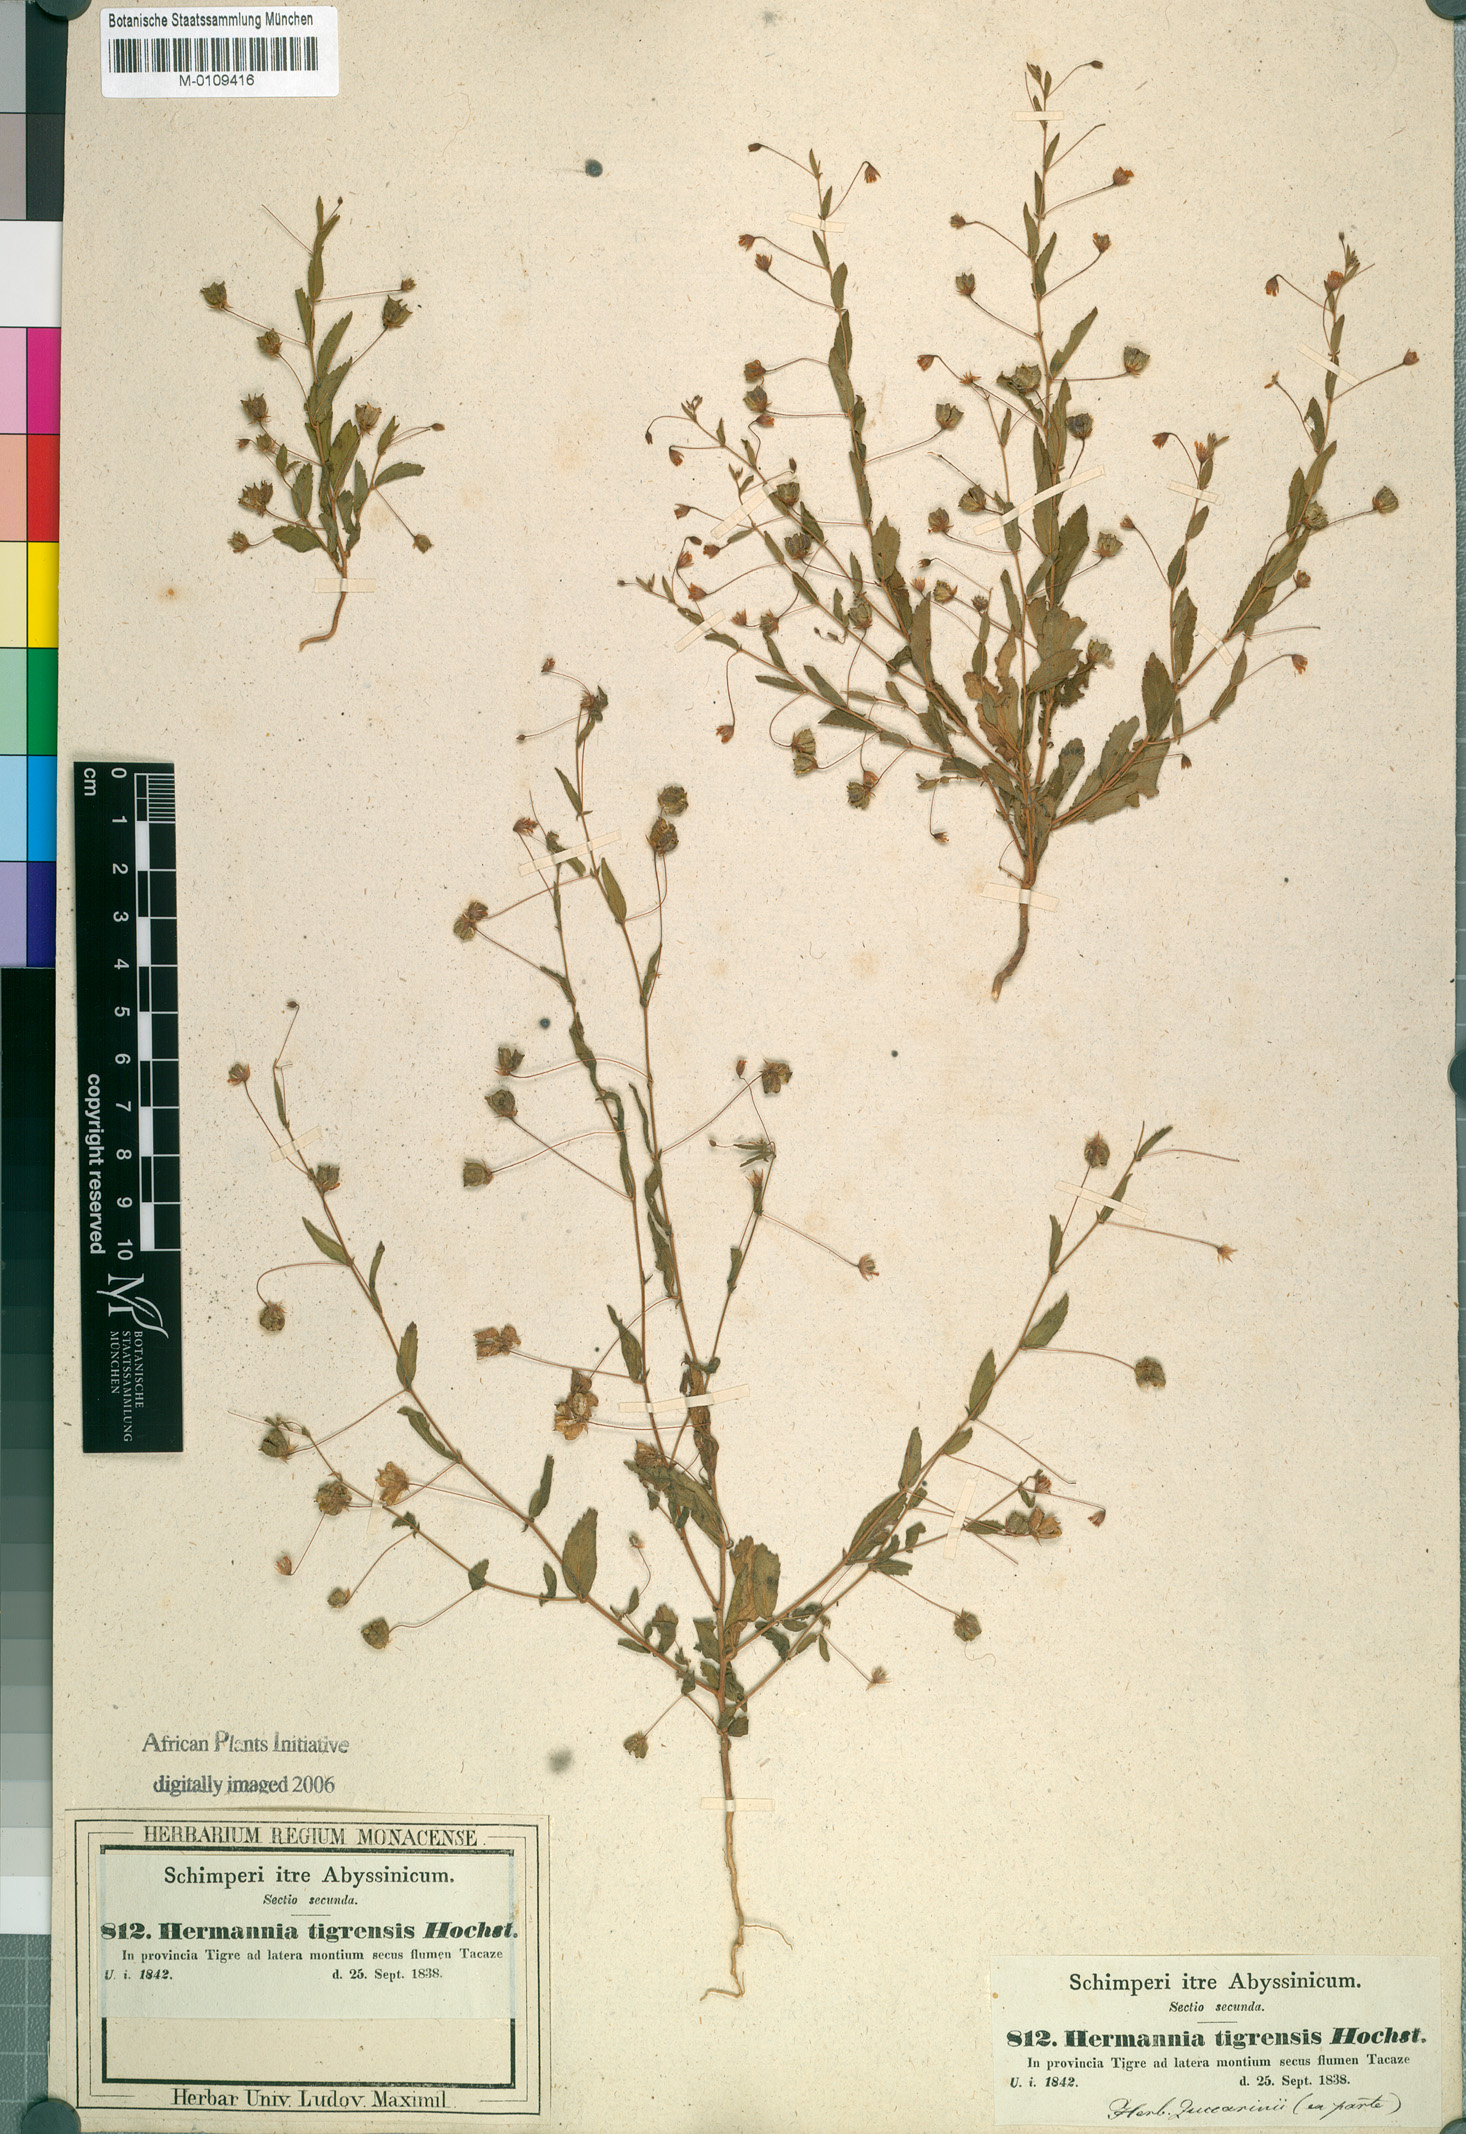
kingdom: Plantae
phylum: Tracheophyta
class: Magnoliopsida
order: Malvales
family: Malvaceae
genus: Hermannia
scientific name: Hermannia tigreensis
